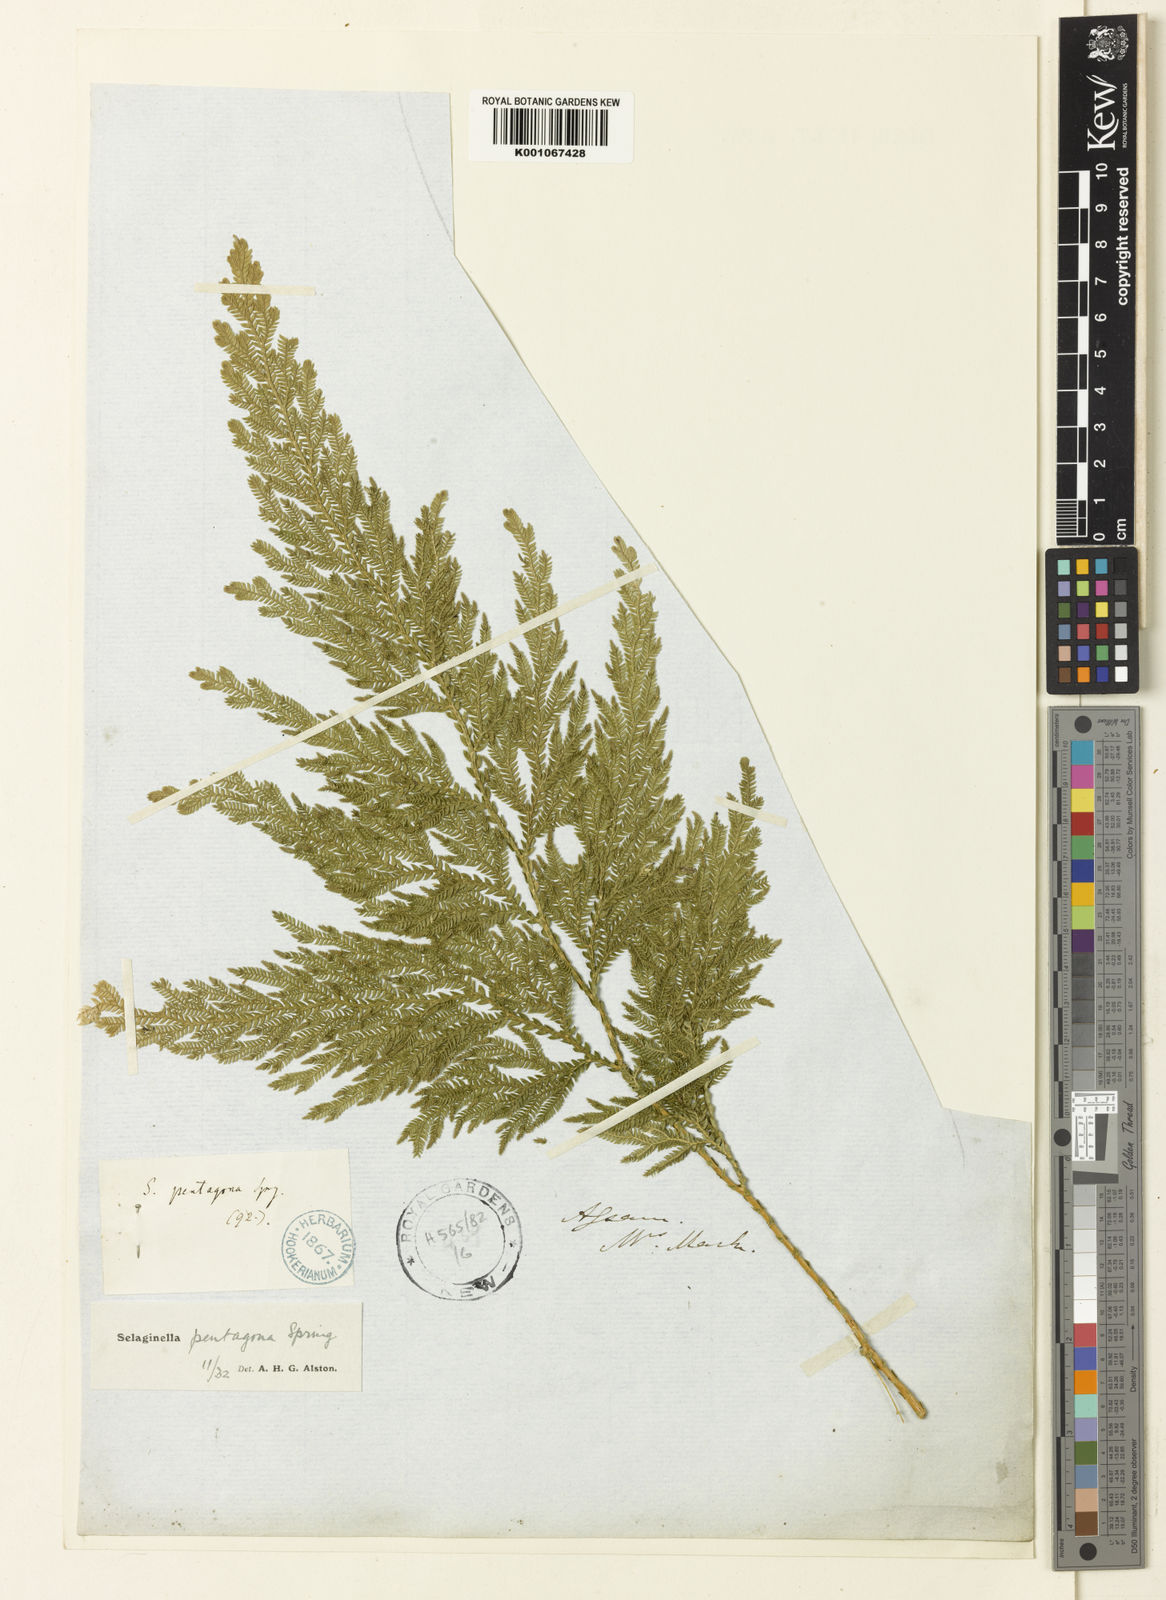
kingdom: Plantae
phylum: Tracheophyta
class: Lycopodiopsida
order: Selaginellales
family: Selaginellaceae
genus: Selaginella
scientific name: Selaginella pentagona
